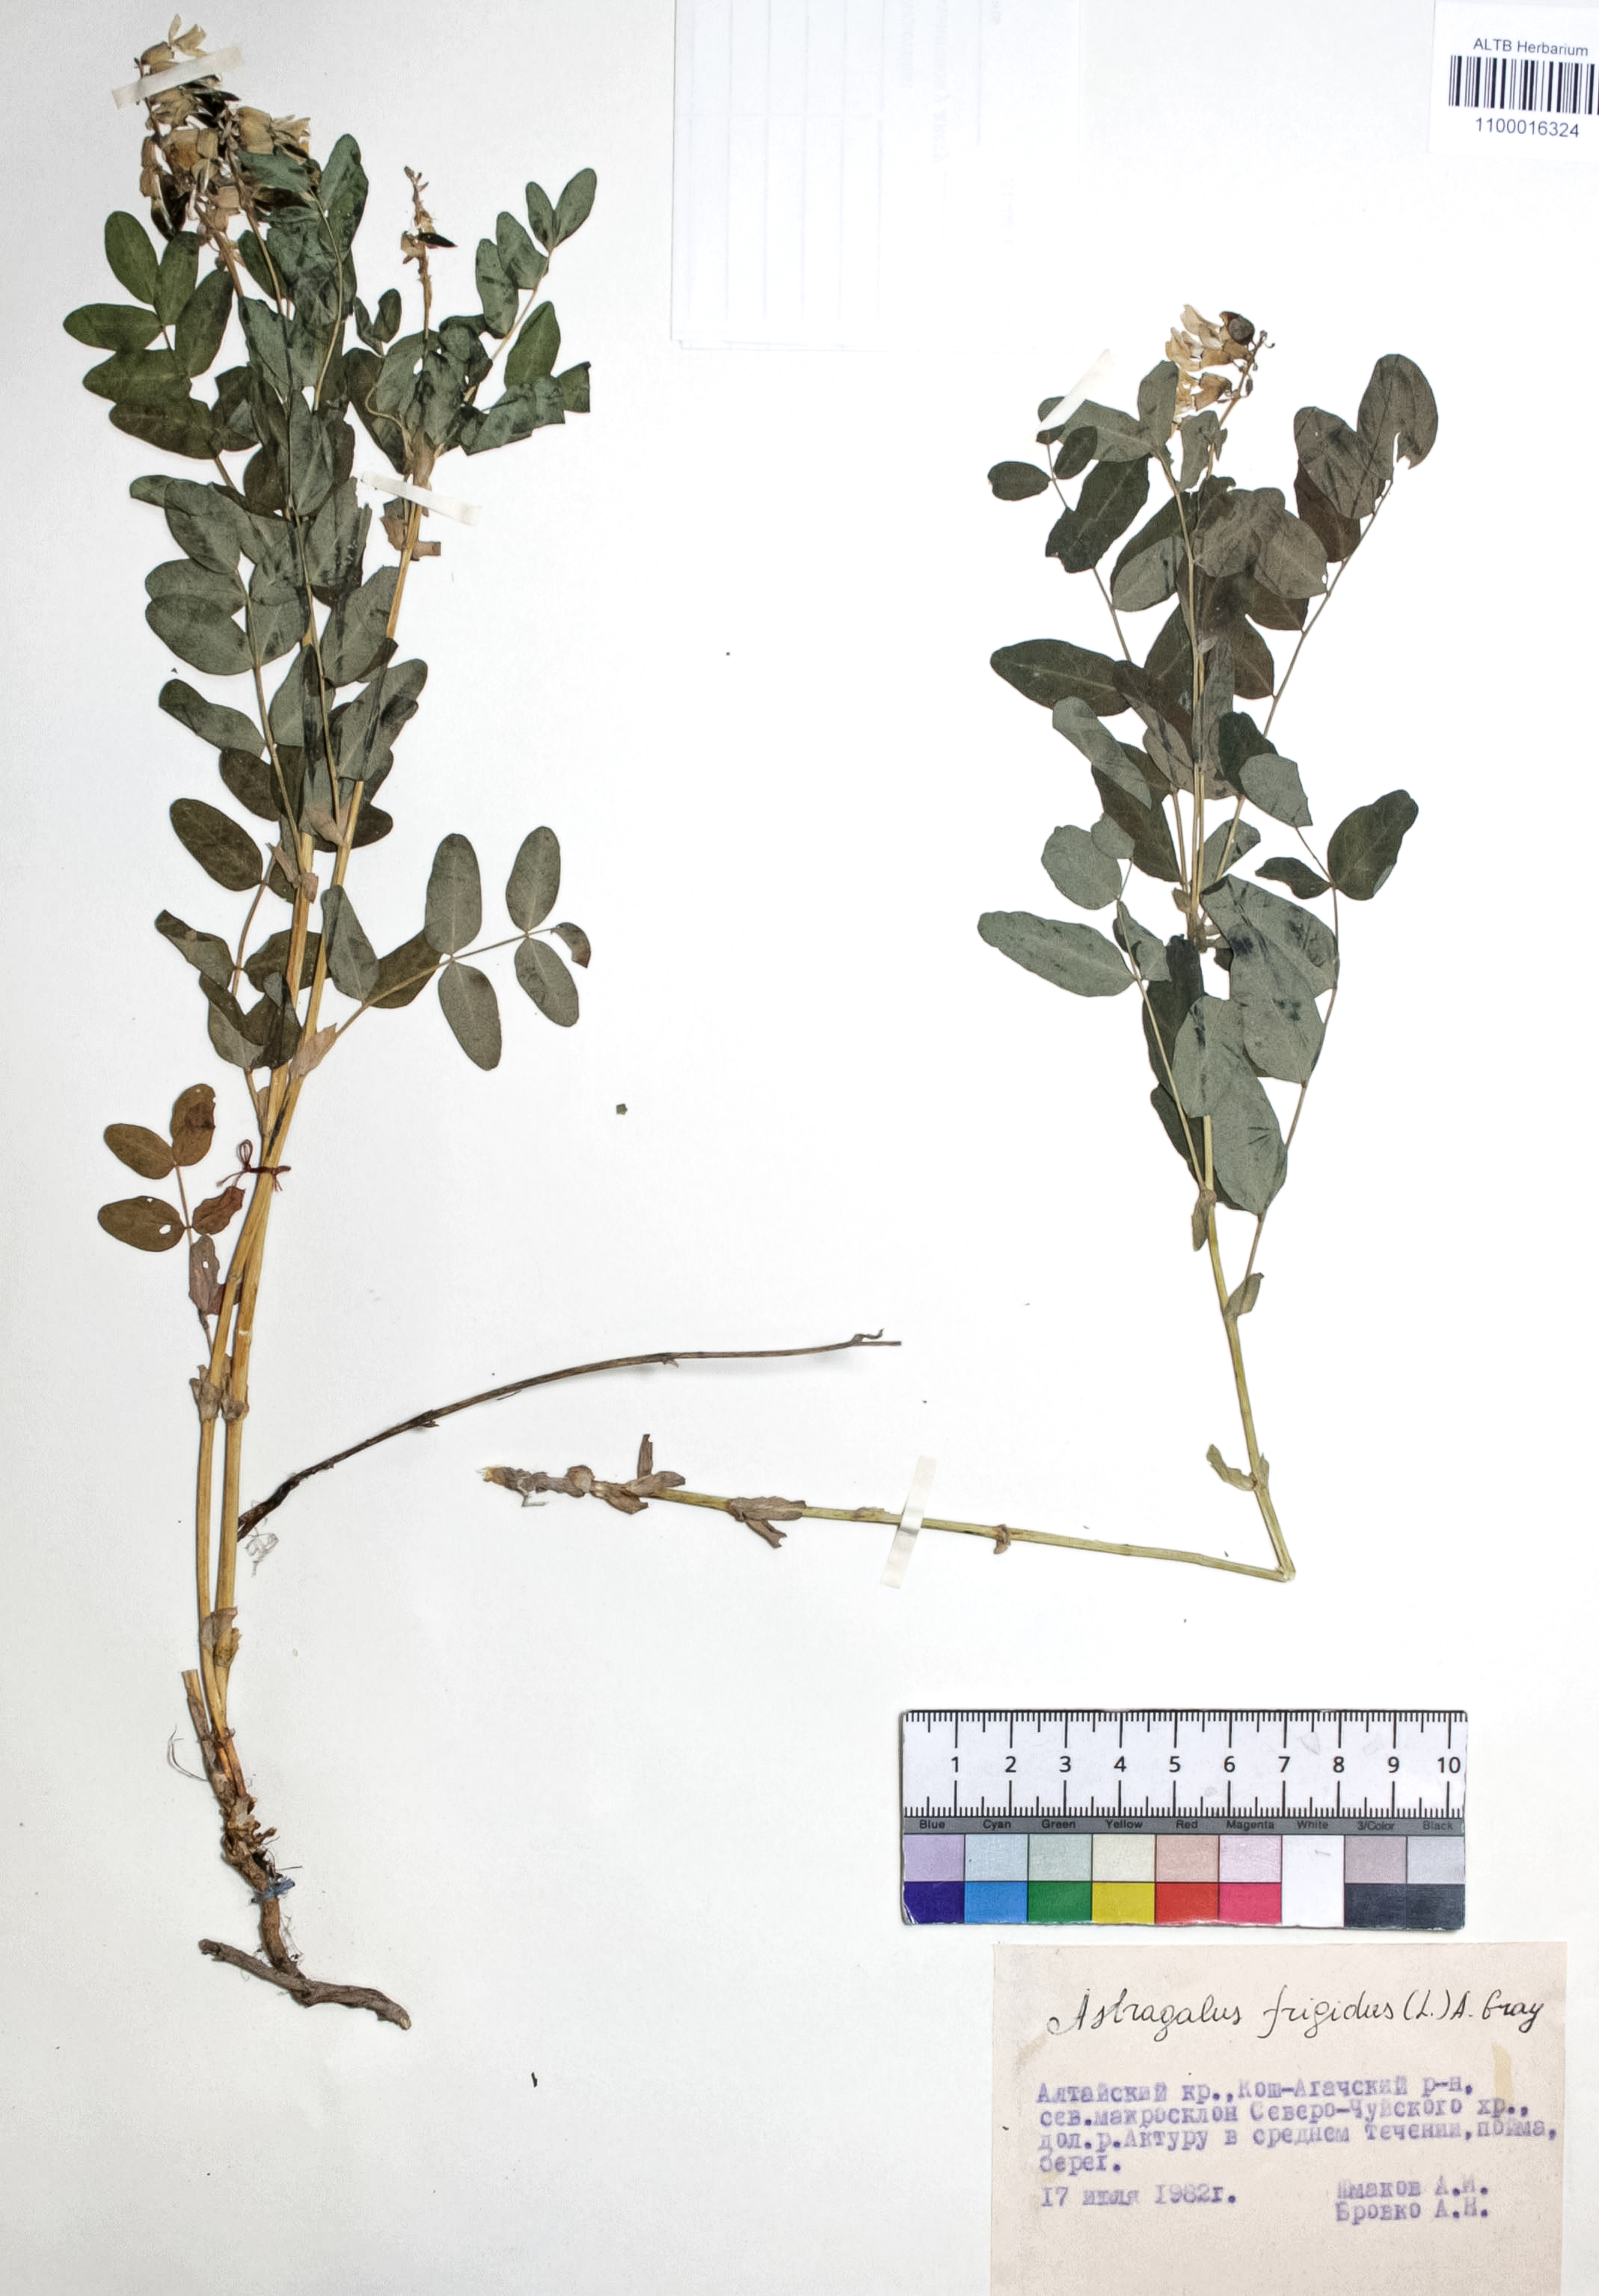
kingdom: Plantae
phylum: Tracheophyta
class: Magnoliopsida
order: Fabales
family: Fabaceae
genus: Astragalus
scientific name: Astragalus frigidus
